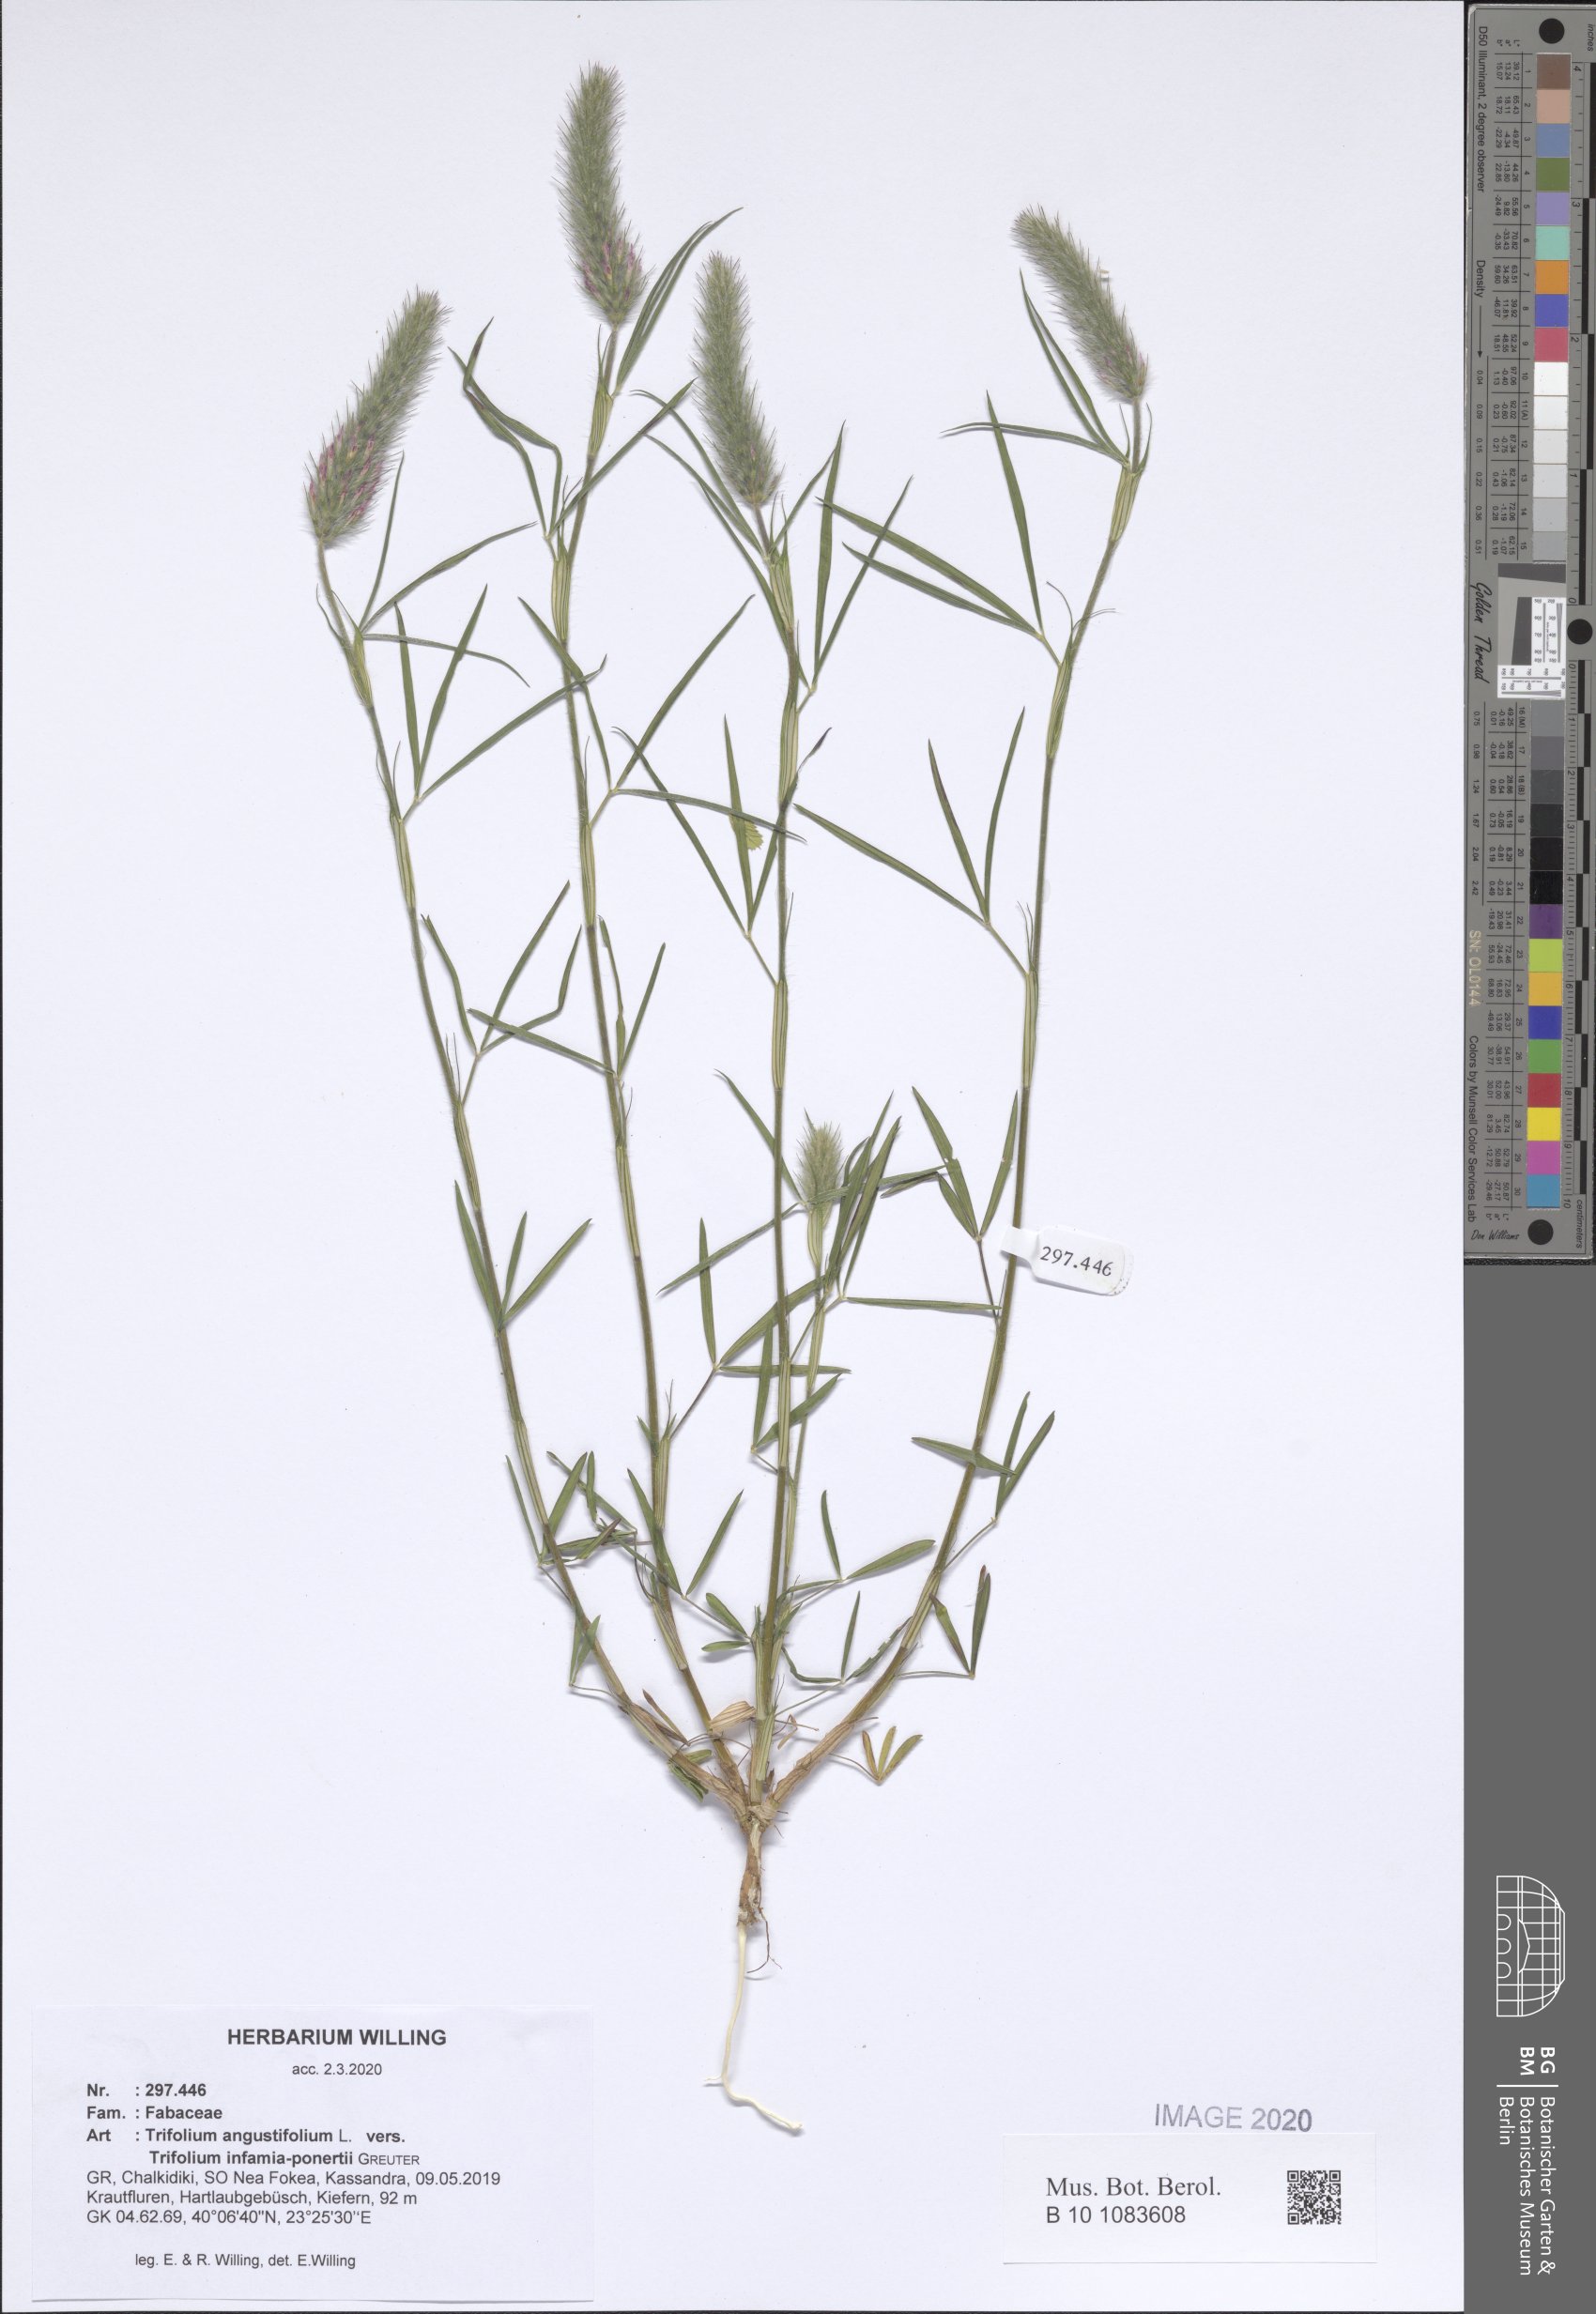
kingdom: Plantae
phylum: Tracheophyta
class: Magnoliopsida
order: Fabales
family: Fabaceae
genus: Trifolium
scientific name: Trifolium angustifolium
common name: Narrow clover
